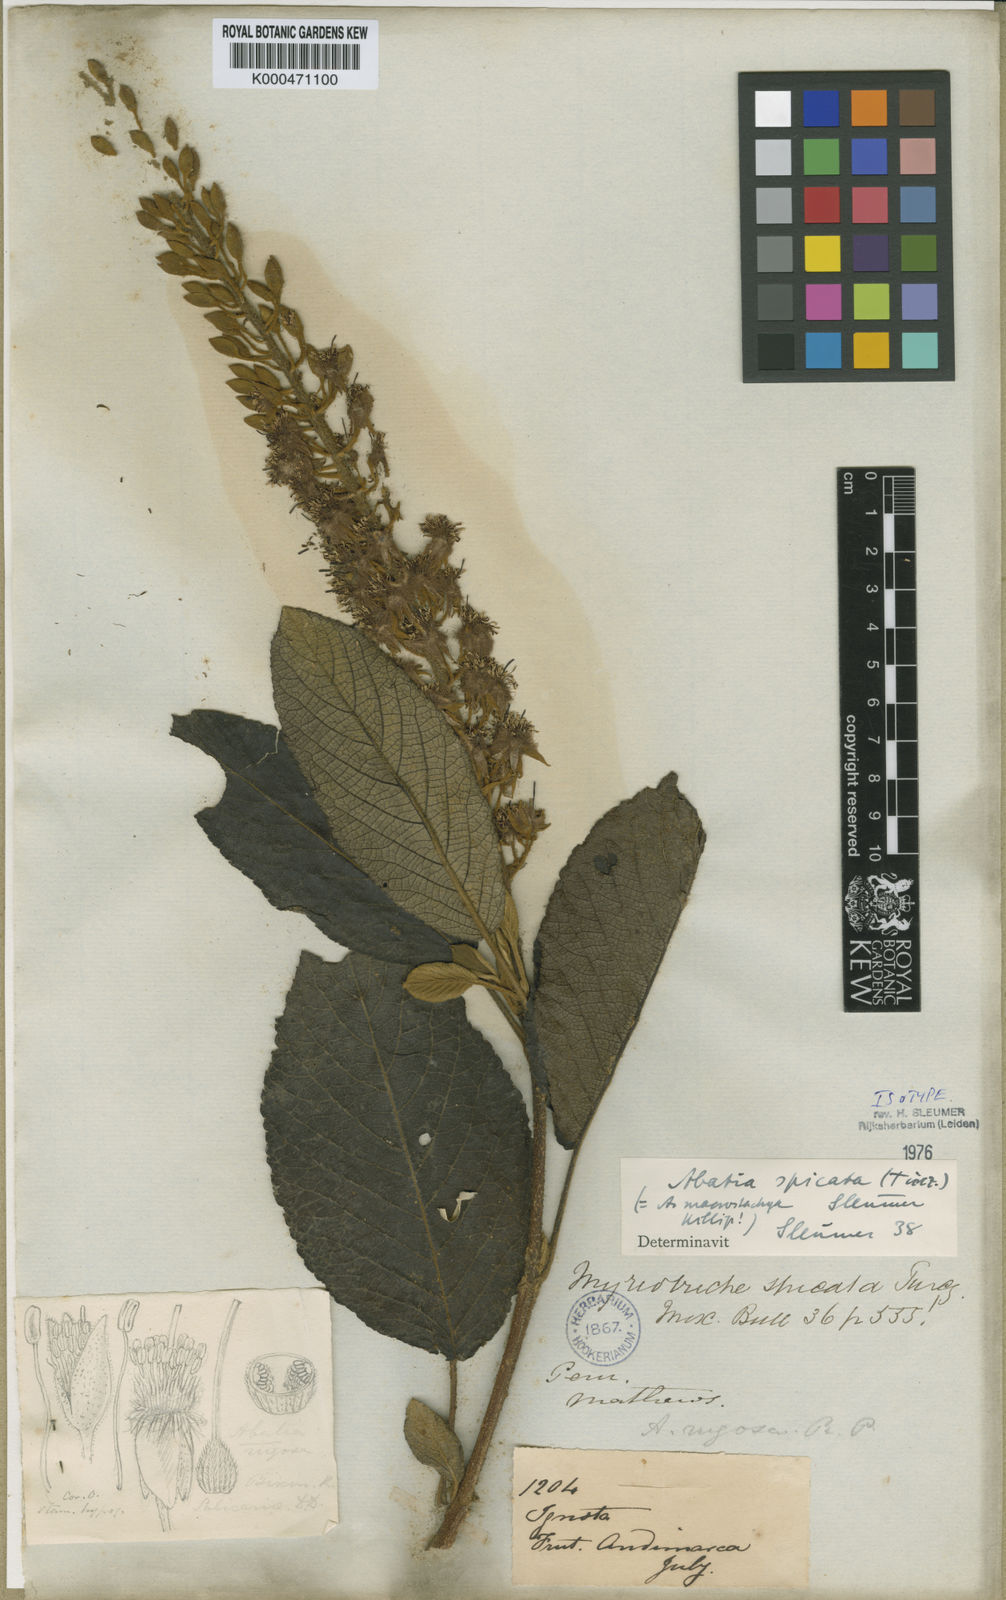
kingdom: Plantae
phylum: Tracheophyta
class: Magnoliopsida
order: Malpighiales
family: Salicaceae
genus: Abatia
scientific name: Abatia spicata
